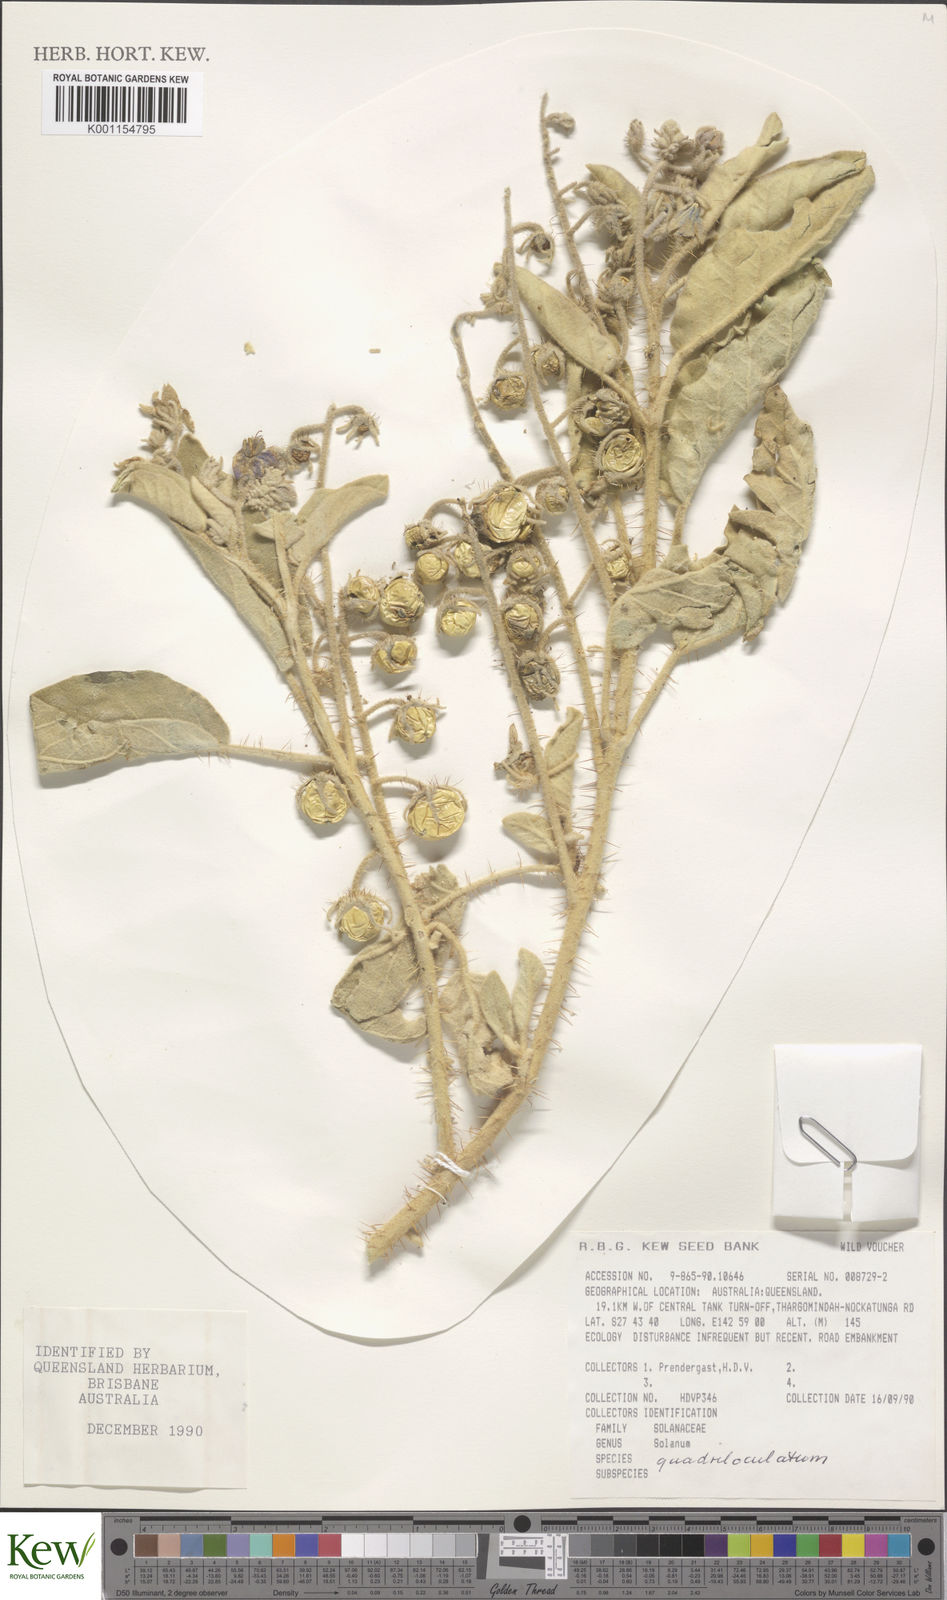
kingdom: Plantae
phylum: Tracheophyta
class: Magnoliopsida
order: Solanales
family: Solanaceae
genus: Solanum
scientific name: Solanum quadriloculatum
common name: Wild tomato
